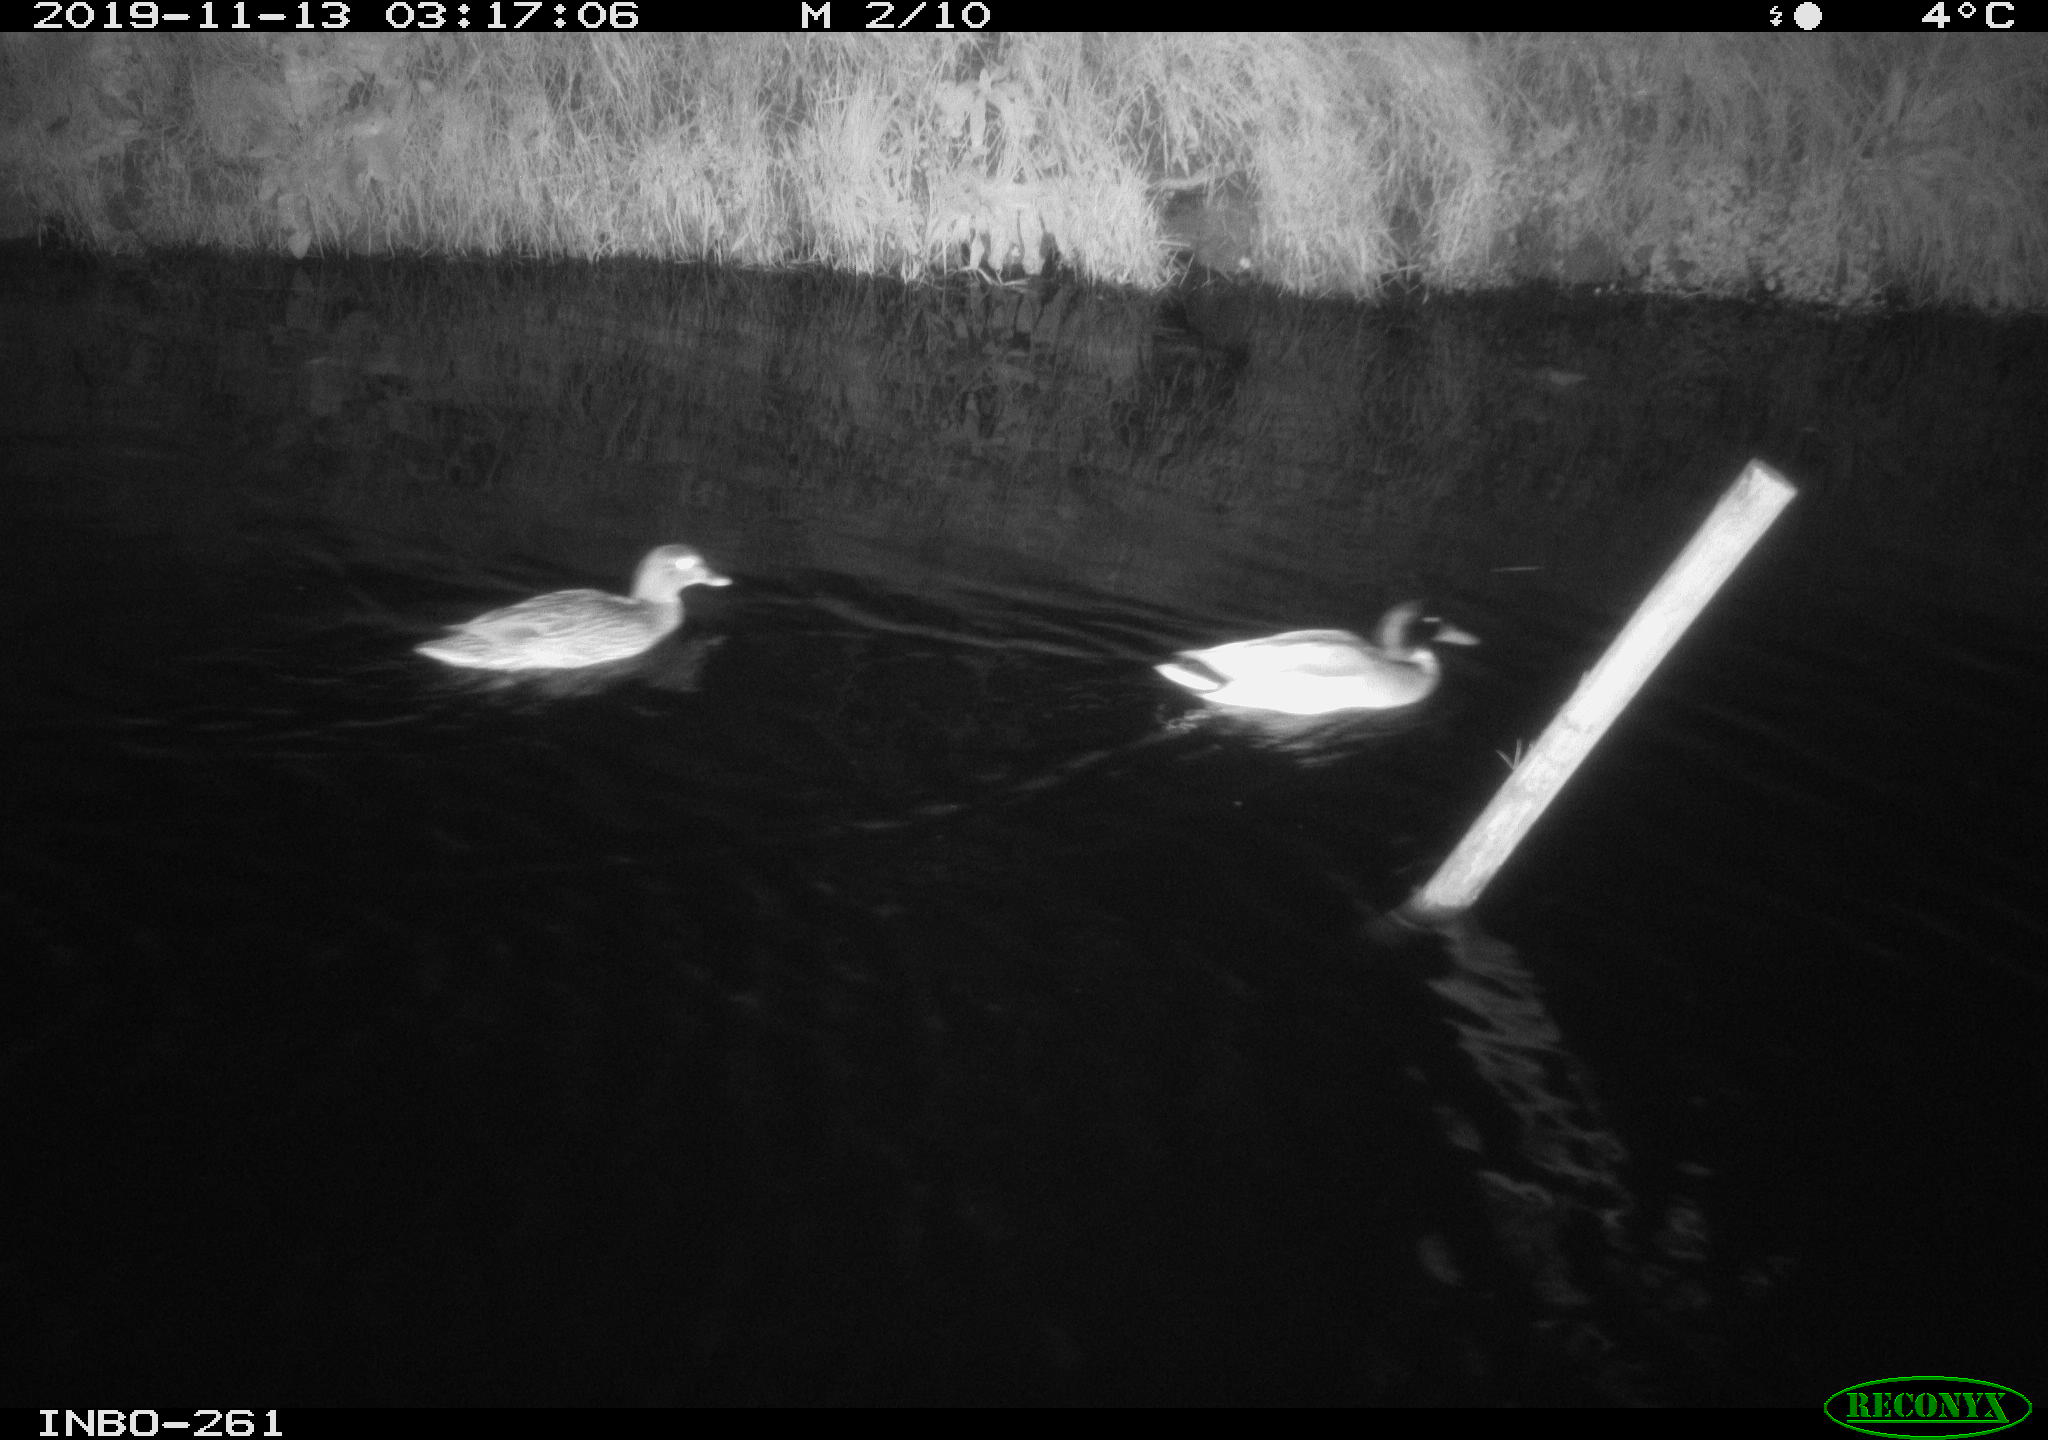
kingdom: Animalia
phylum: Chordata
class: Aves
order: Anseriformes
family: Anatidae
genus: Anas
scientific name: Anas platyrhynchos
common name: Mallard
